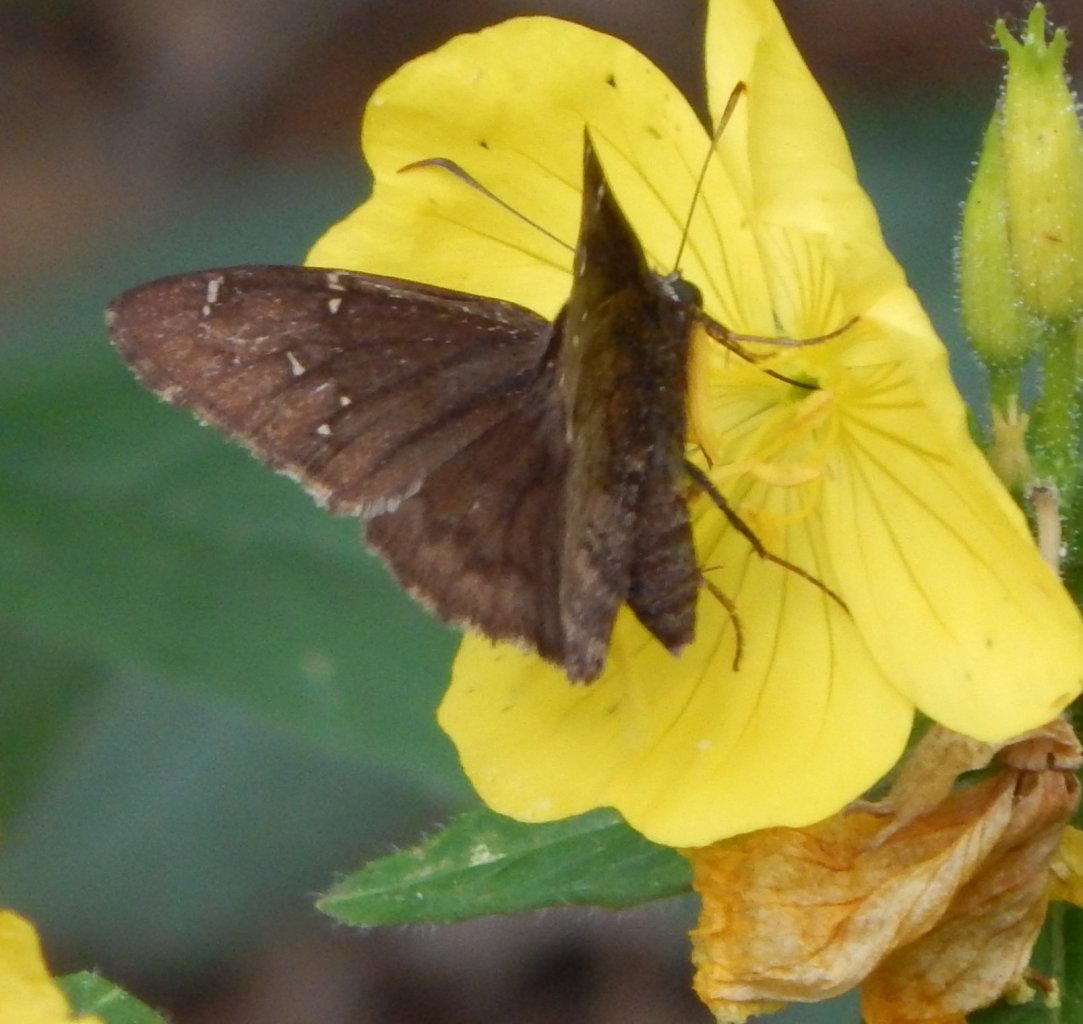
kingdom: Animalia
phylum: Arthropoda
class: Insecta
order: Lepidoptera
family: Hesperiidae
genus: Autochton
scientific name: Autochton
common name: Northern Cloudywing
